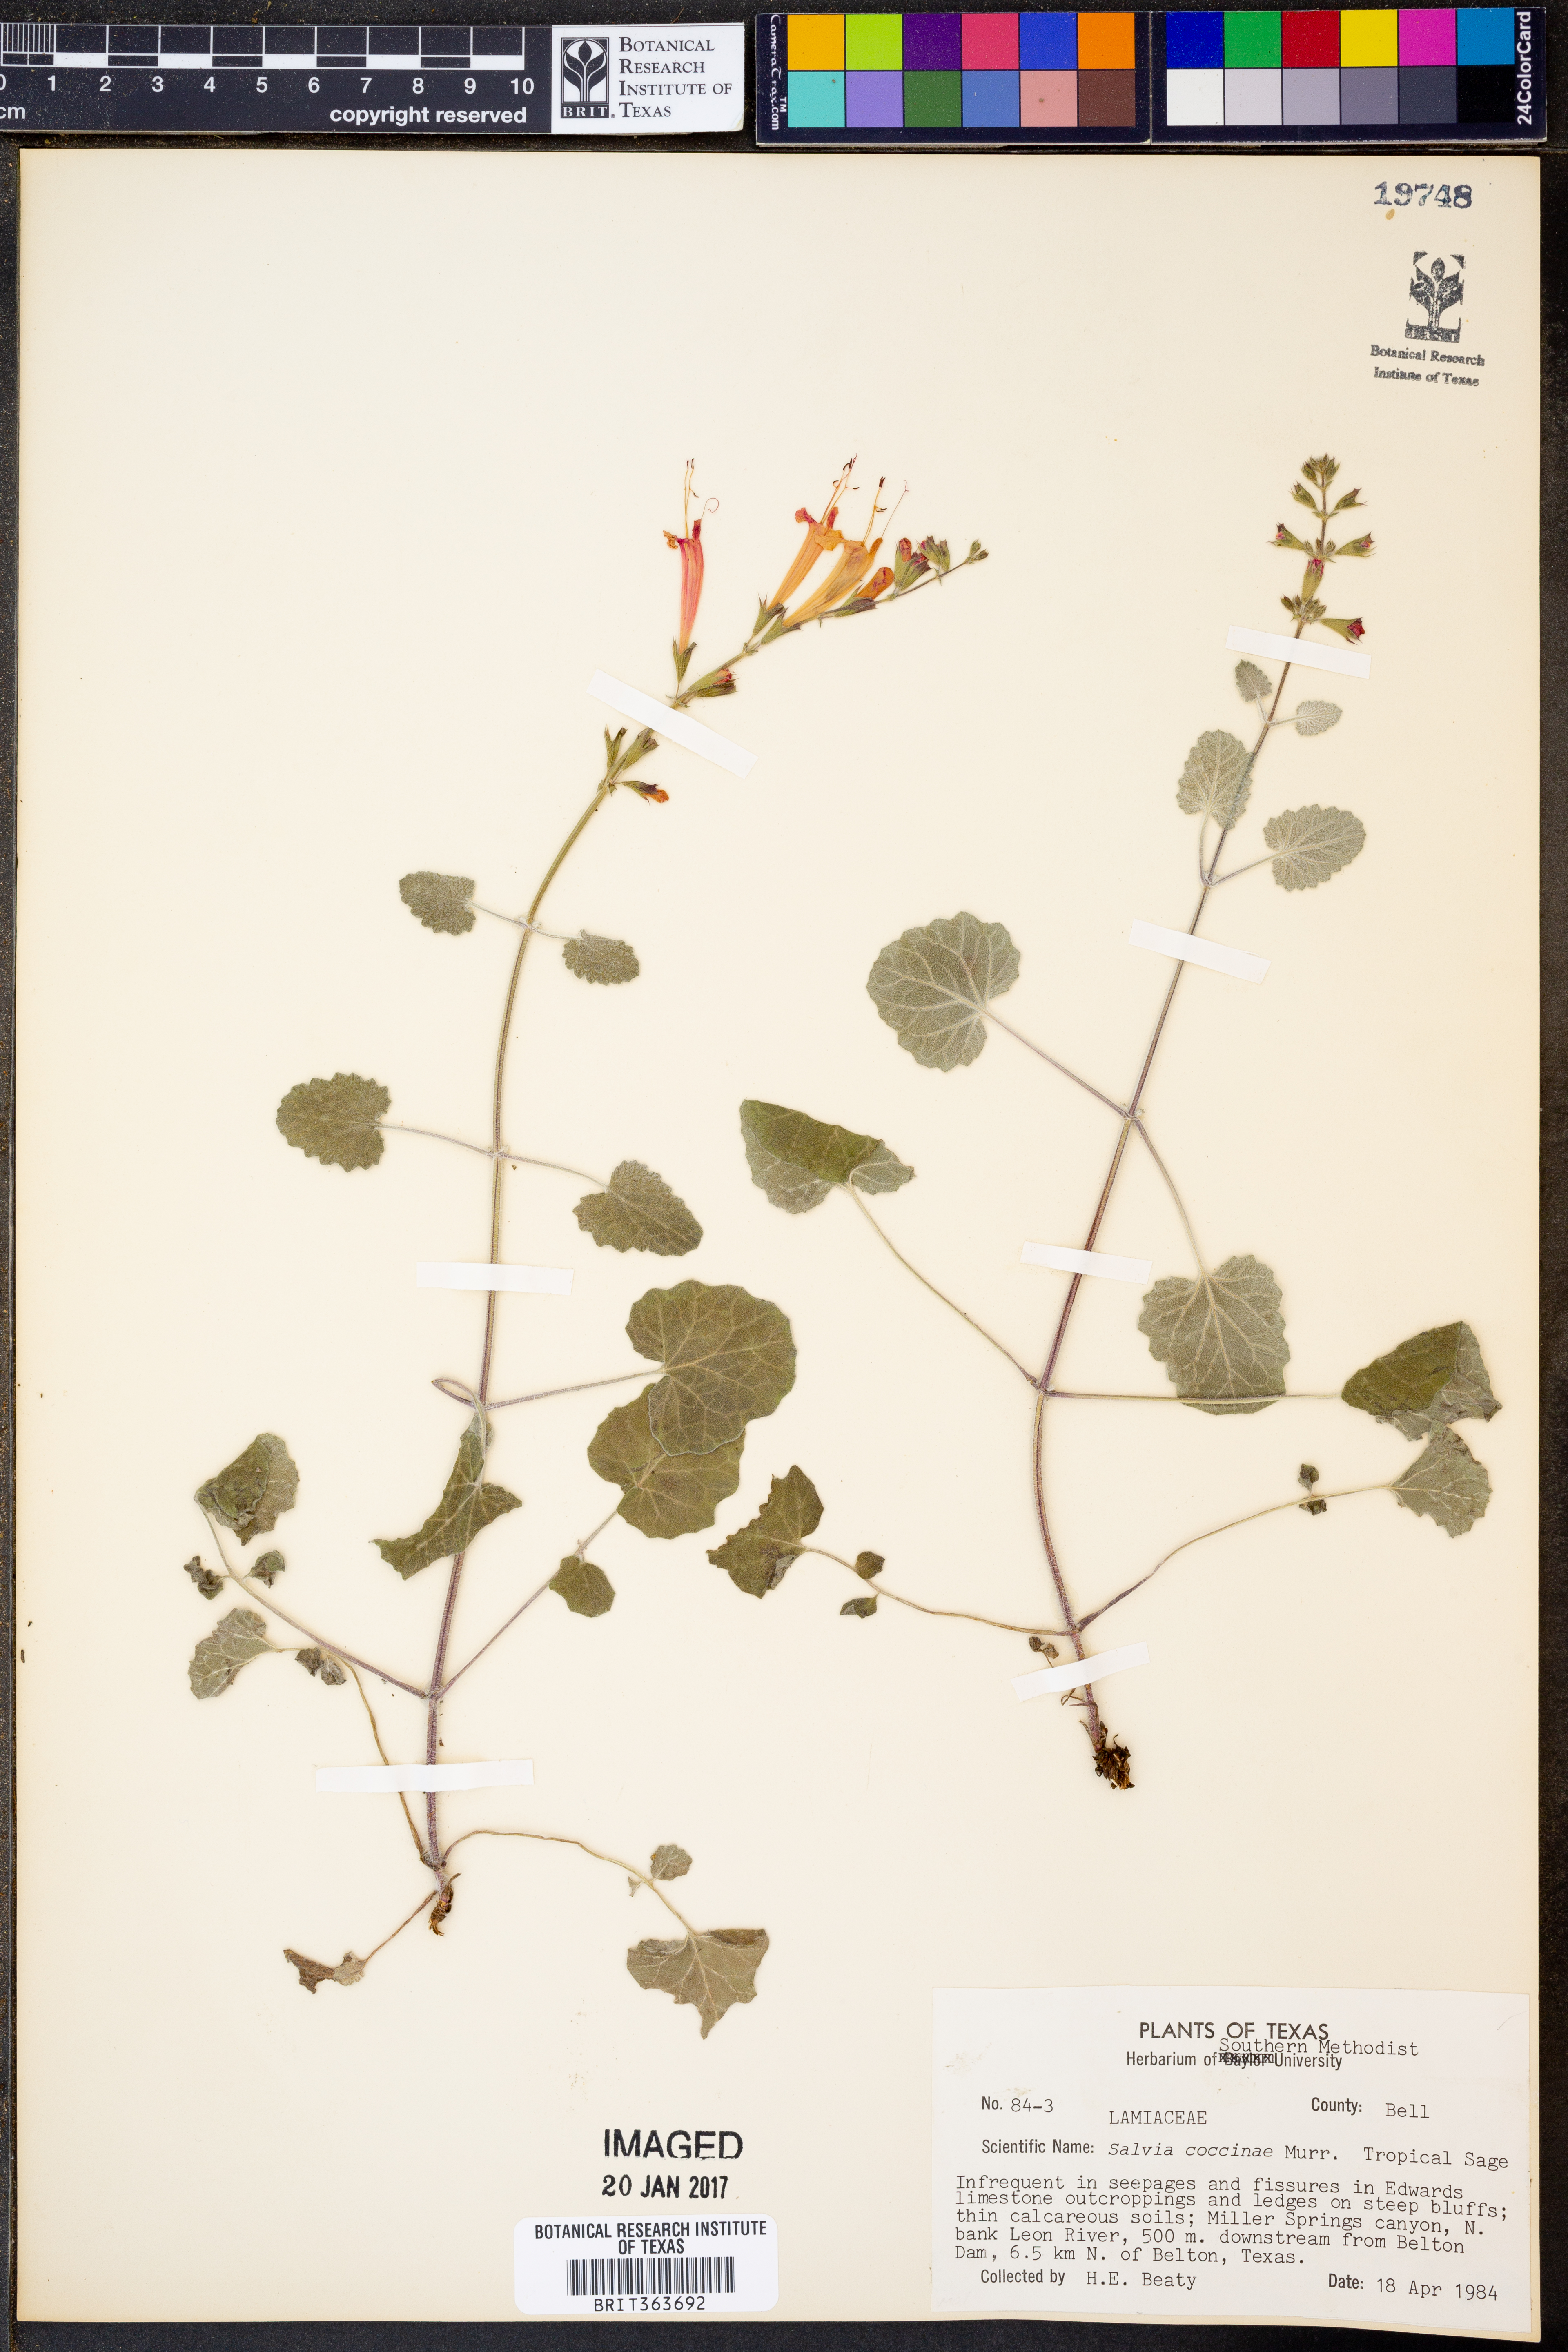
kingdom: Plantae
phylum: Tracheophyta
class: Magnoliopsida
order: Lamiales
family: Lamiaceae
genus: Salvia
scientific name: Salvia coccinea
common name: Blood sage
